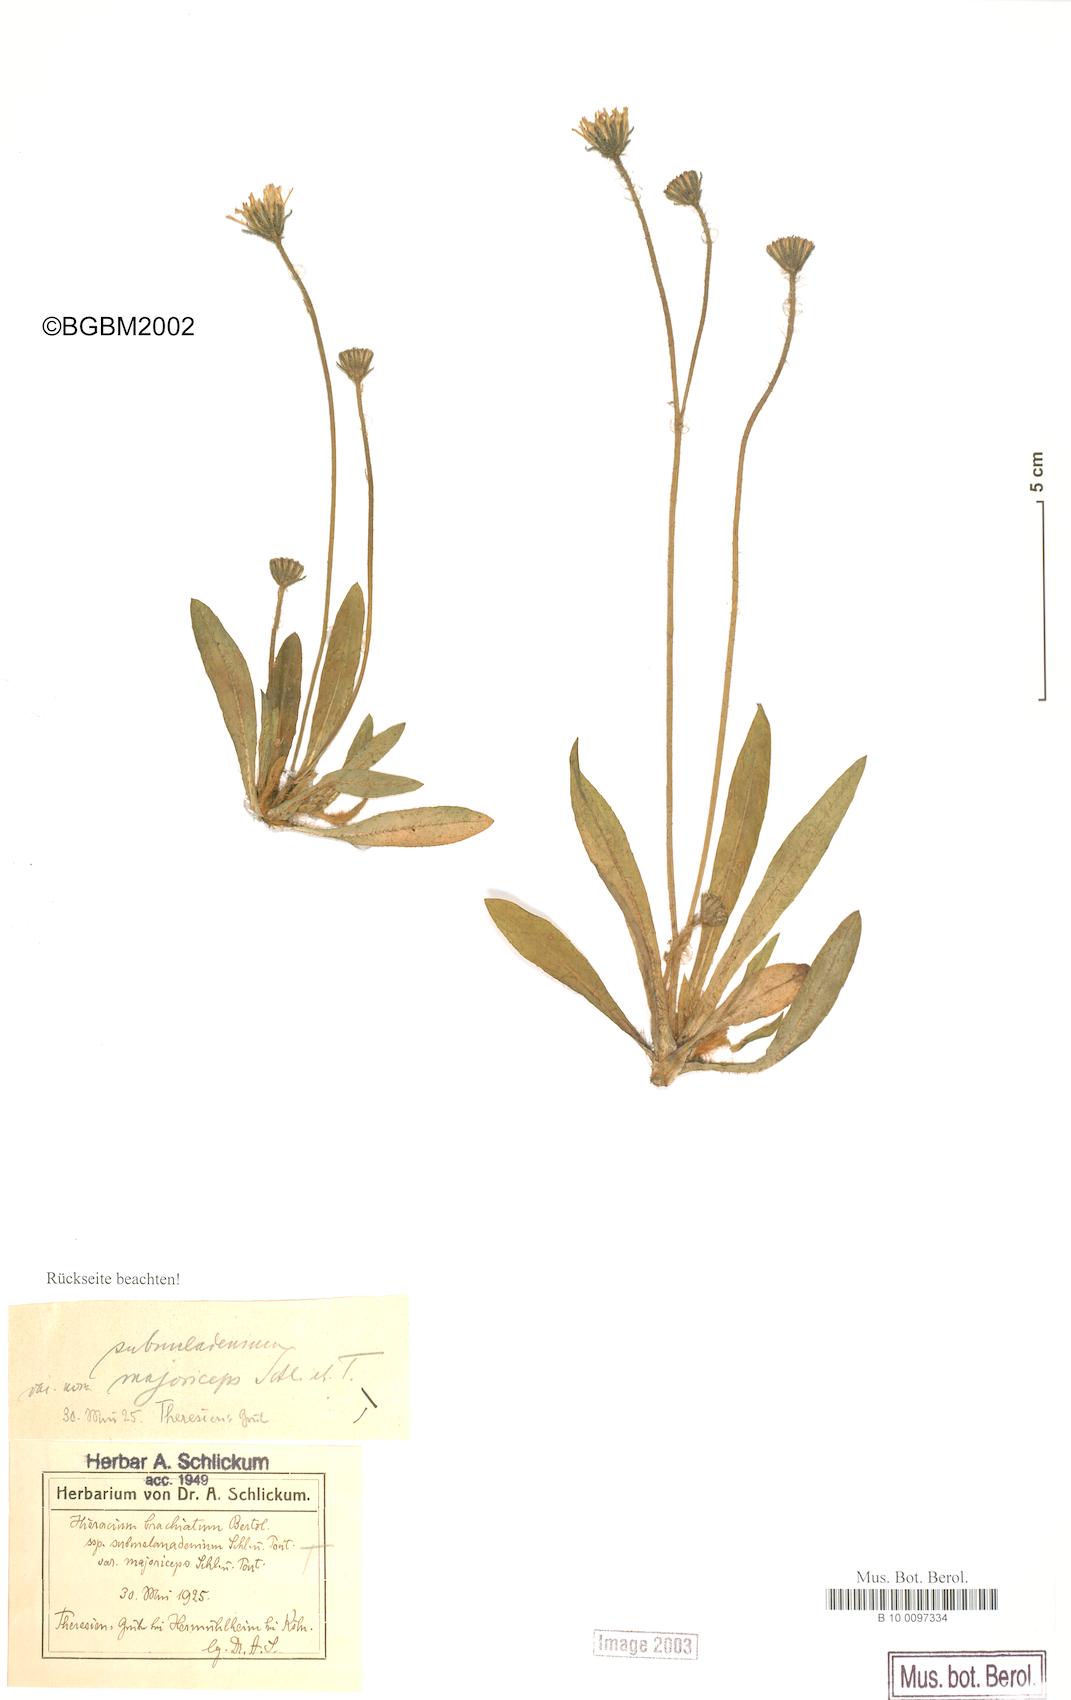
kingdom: Plantae
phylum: Tracheophyta
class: Magnoliopsida
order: Asterales
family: Asteraceae
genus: Pilosella
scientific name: Pilosella acutifolia
